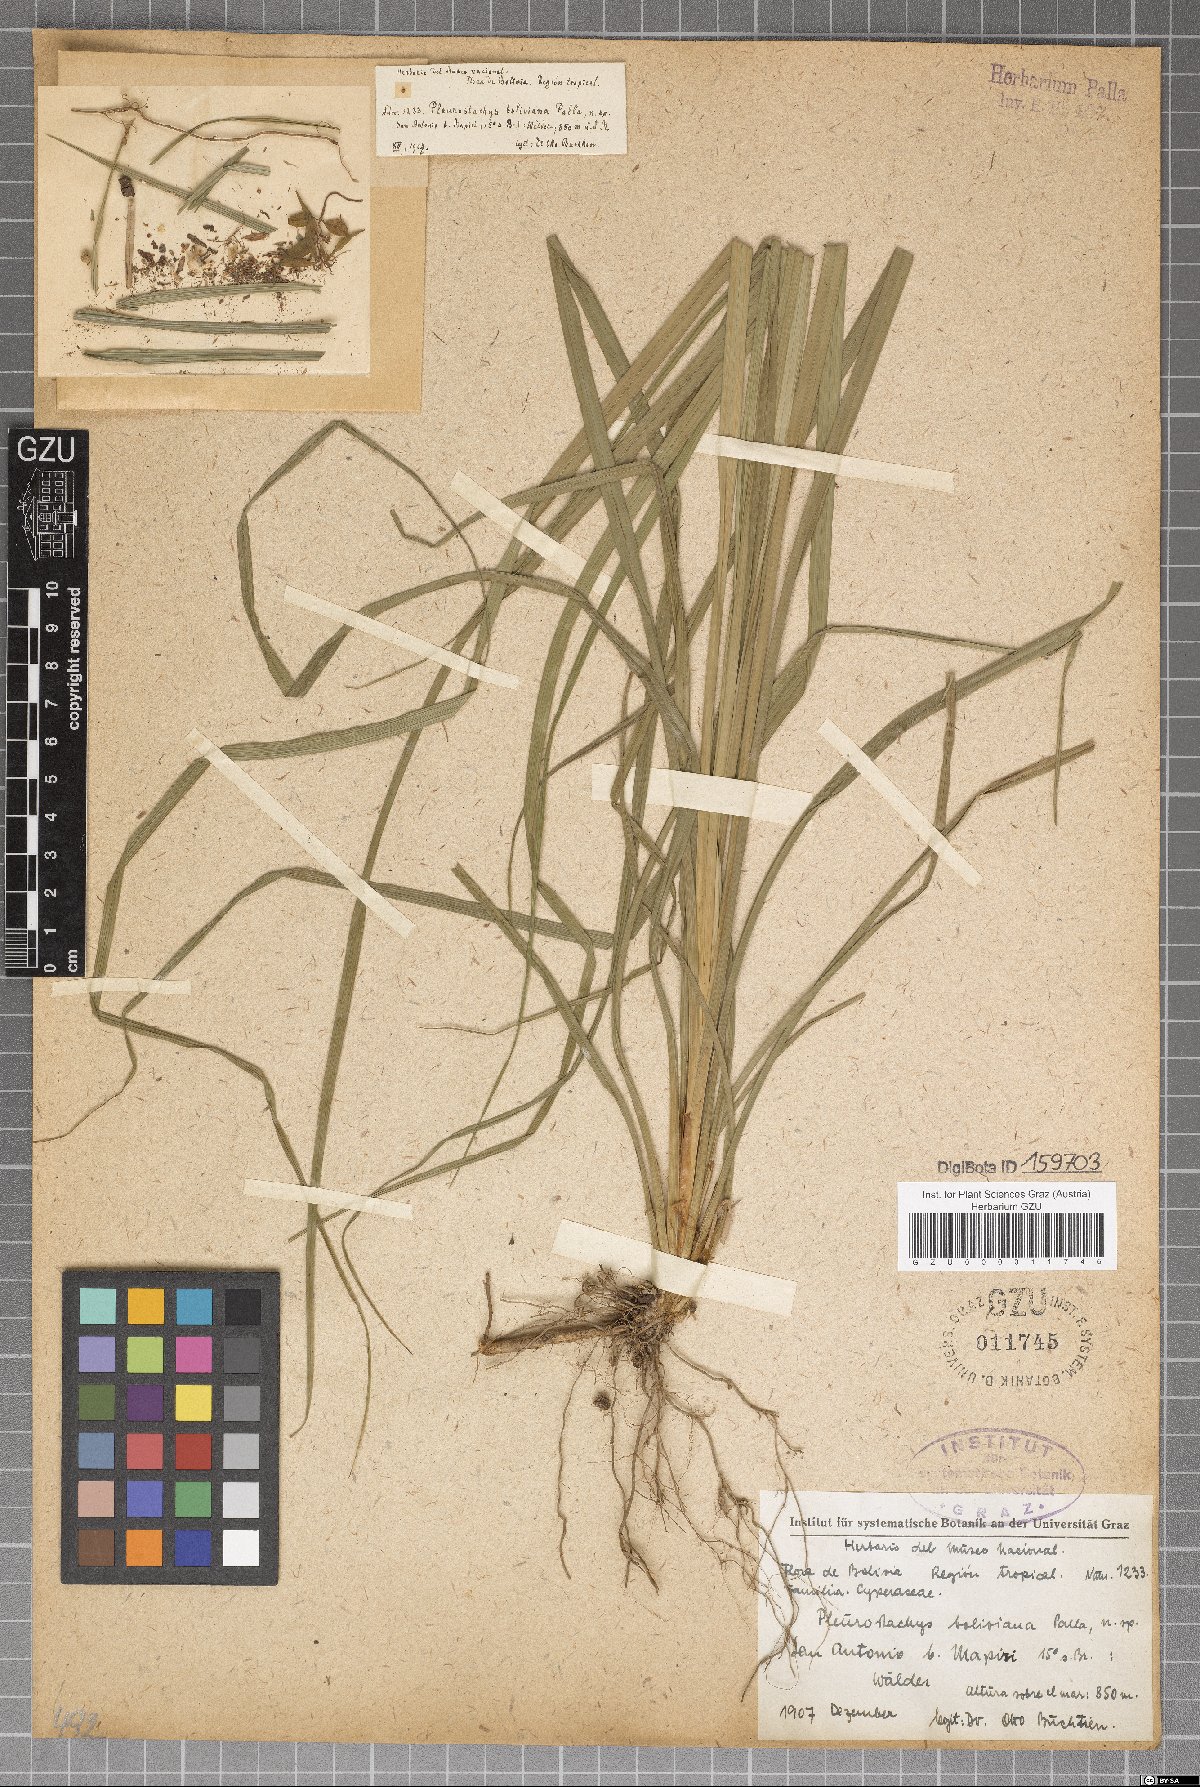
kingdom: Plantae
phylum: Tracheophyta
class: Liliopsida
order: Poales
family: Cyperaceae
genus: Rhynchospora
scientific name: Rhynchospora Pleurostachys boliviana
